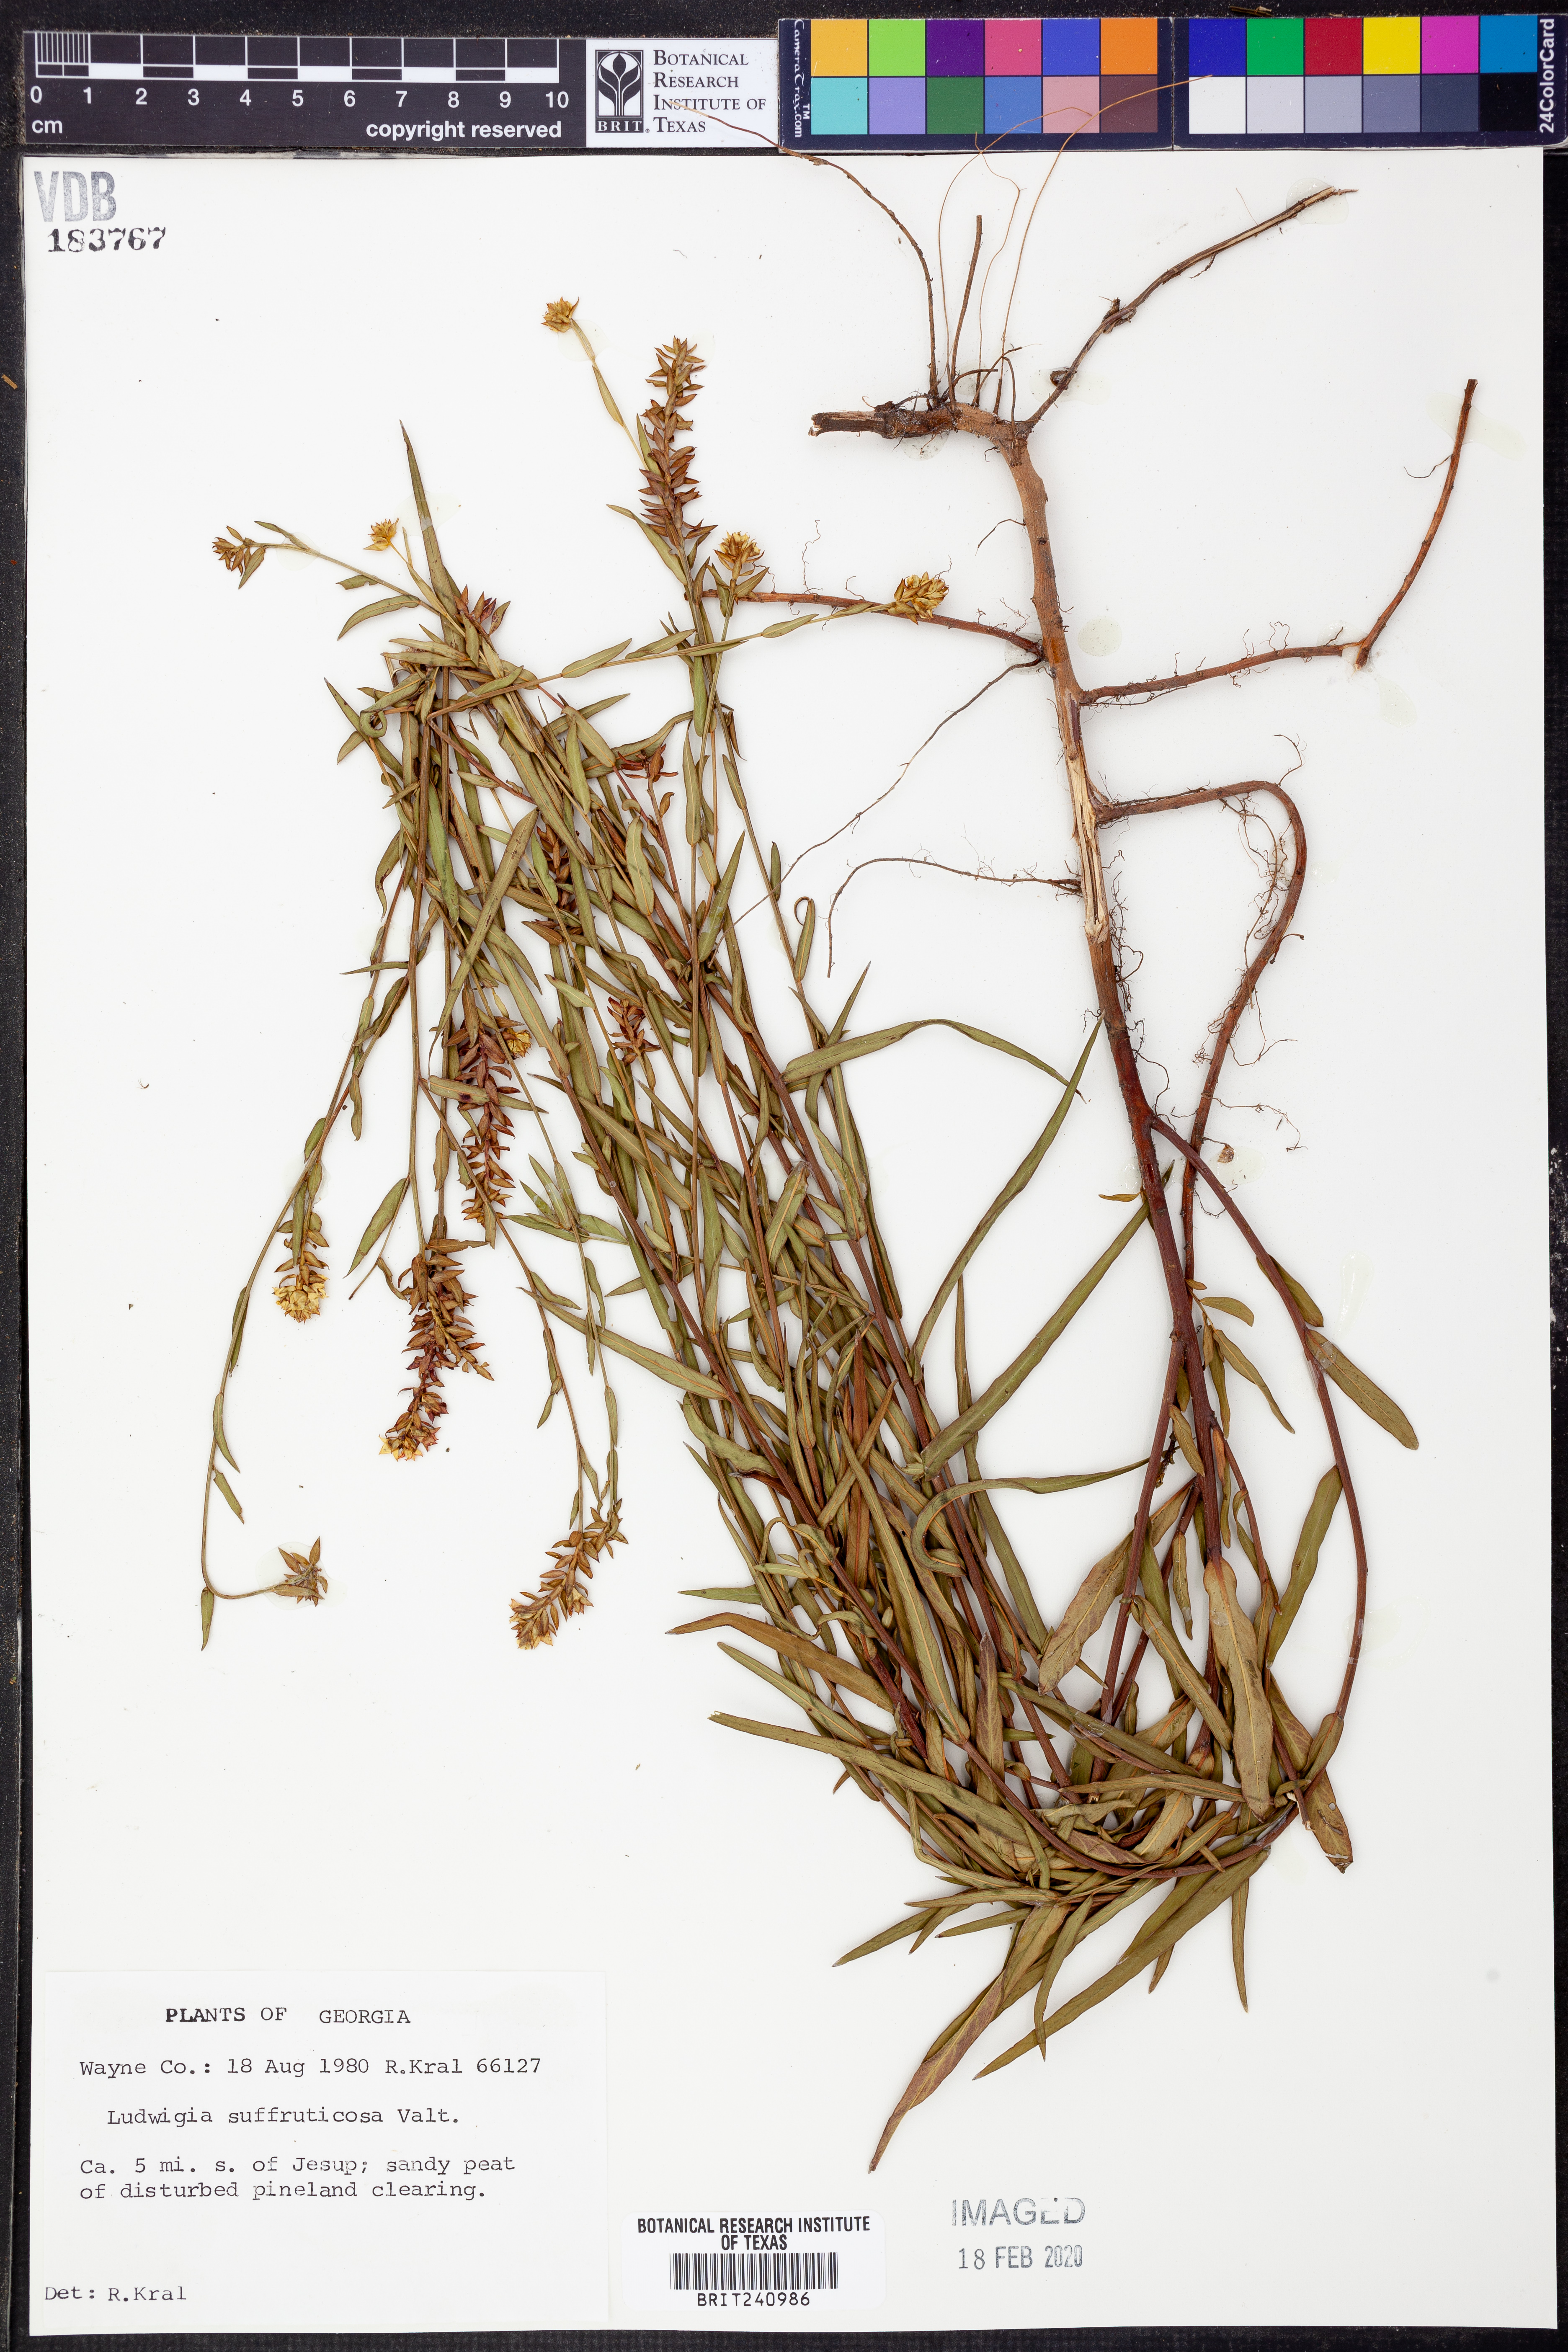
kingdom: Plantae
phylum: Tracheophyta
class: Magnoliopsida
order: Myrtales
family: Onagraceae
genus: Ludwigia
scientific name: Ludwigia suffruticosa
